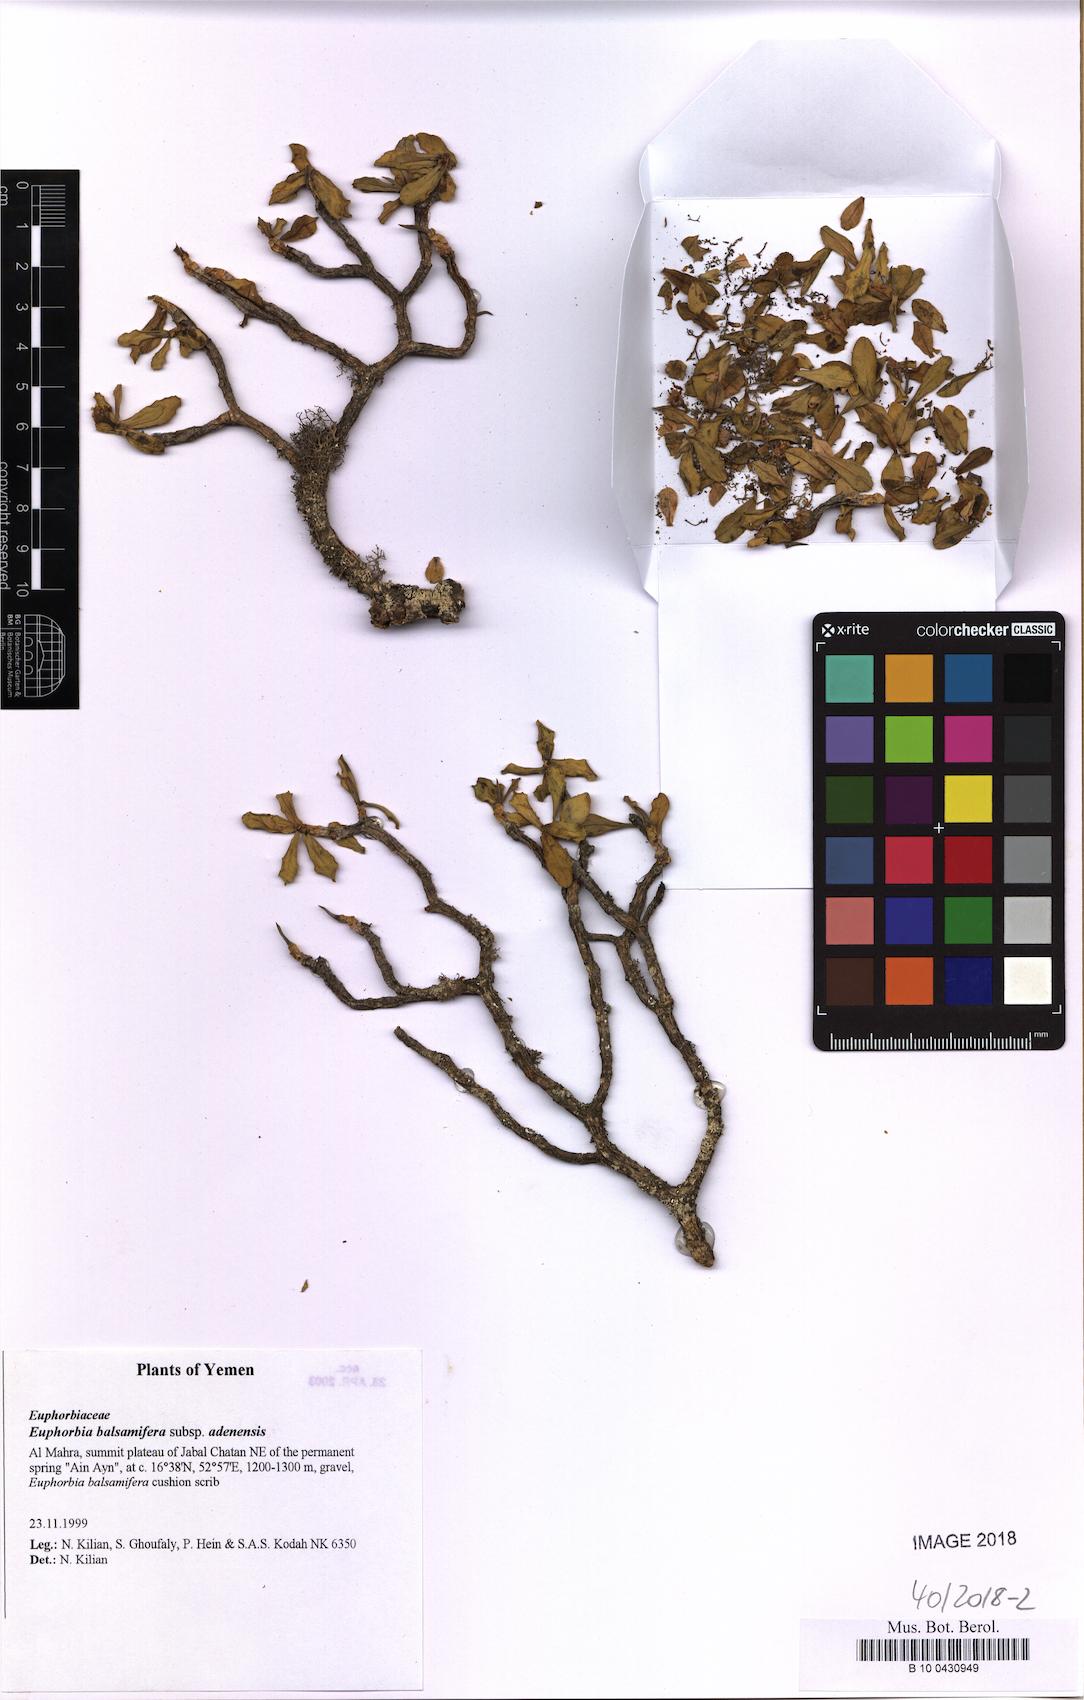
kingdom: Plantae
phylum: Tracheophyta
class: Magnoliopsida
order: Malpighiales
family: Euphorbiaceae
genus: Euphorbia
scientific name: Euphorbia adenensis
